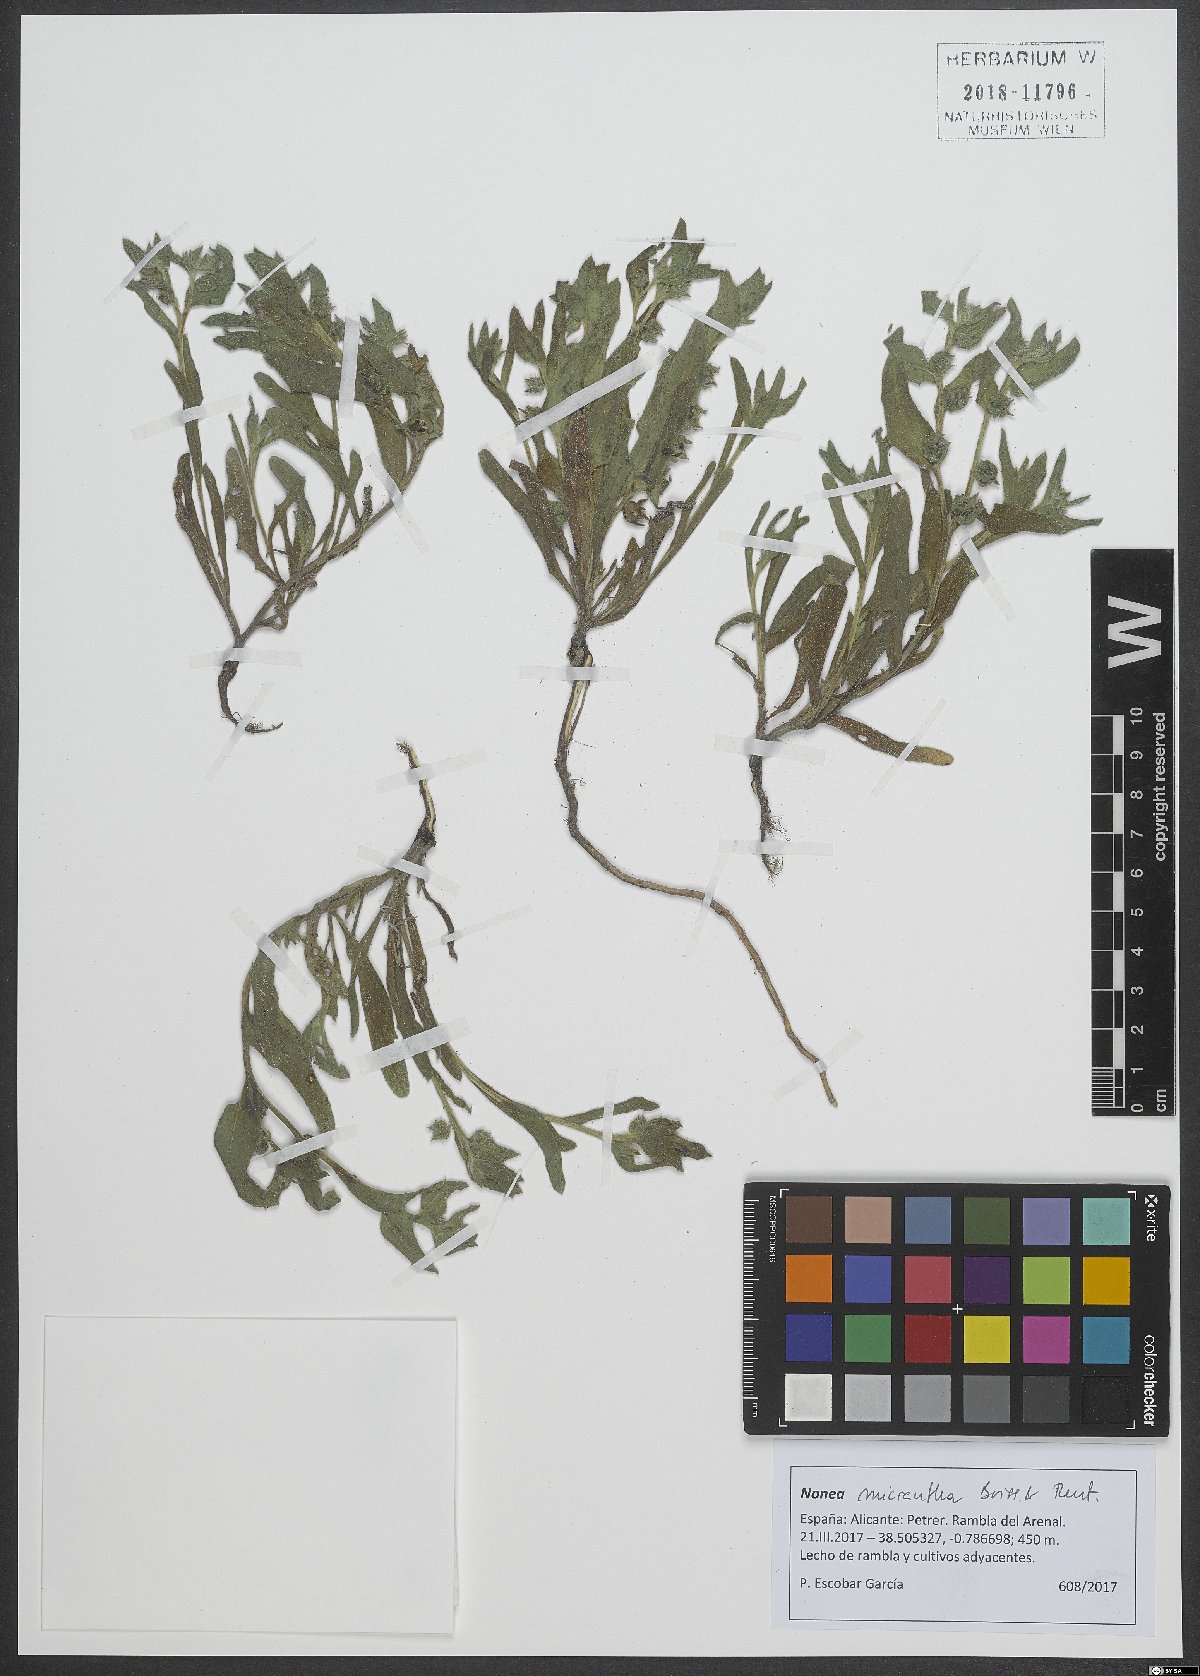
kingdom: Plantae
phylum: Tracheophyta
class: Magnoliopsida
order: Boraginales
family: Boraginaceae
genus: Nonea
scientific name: Nonea micrantha
